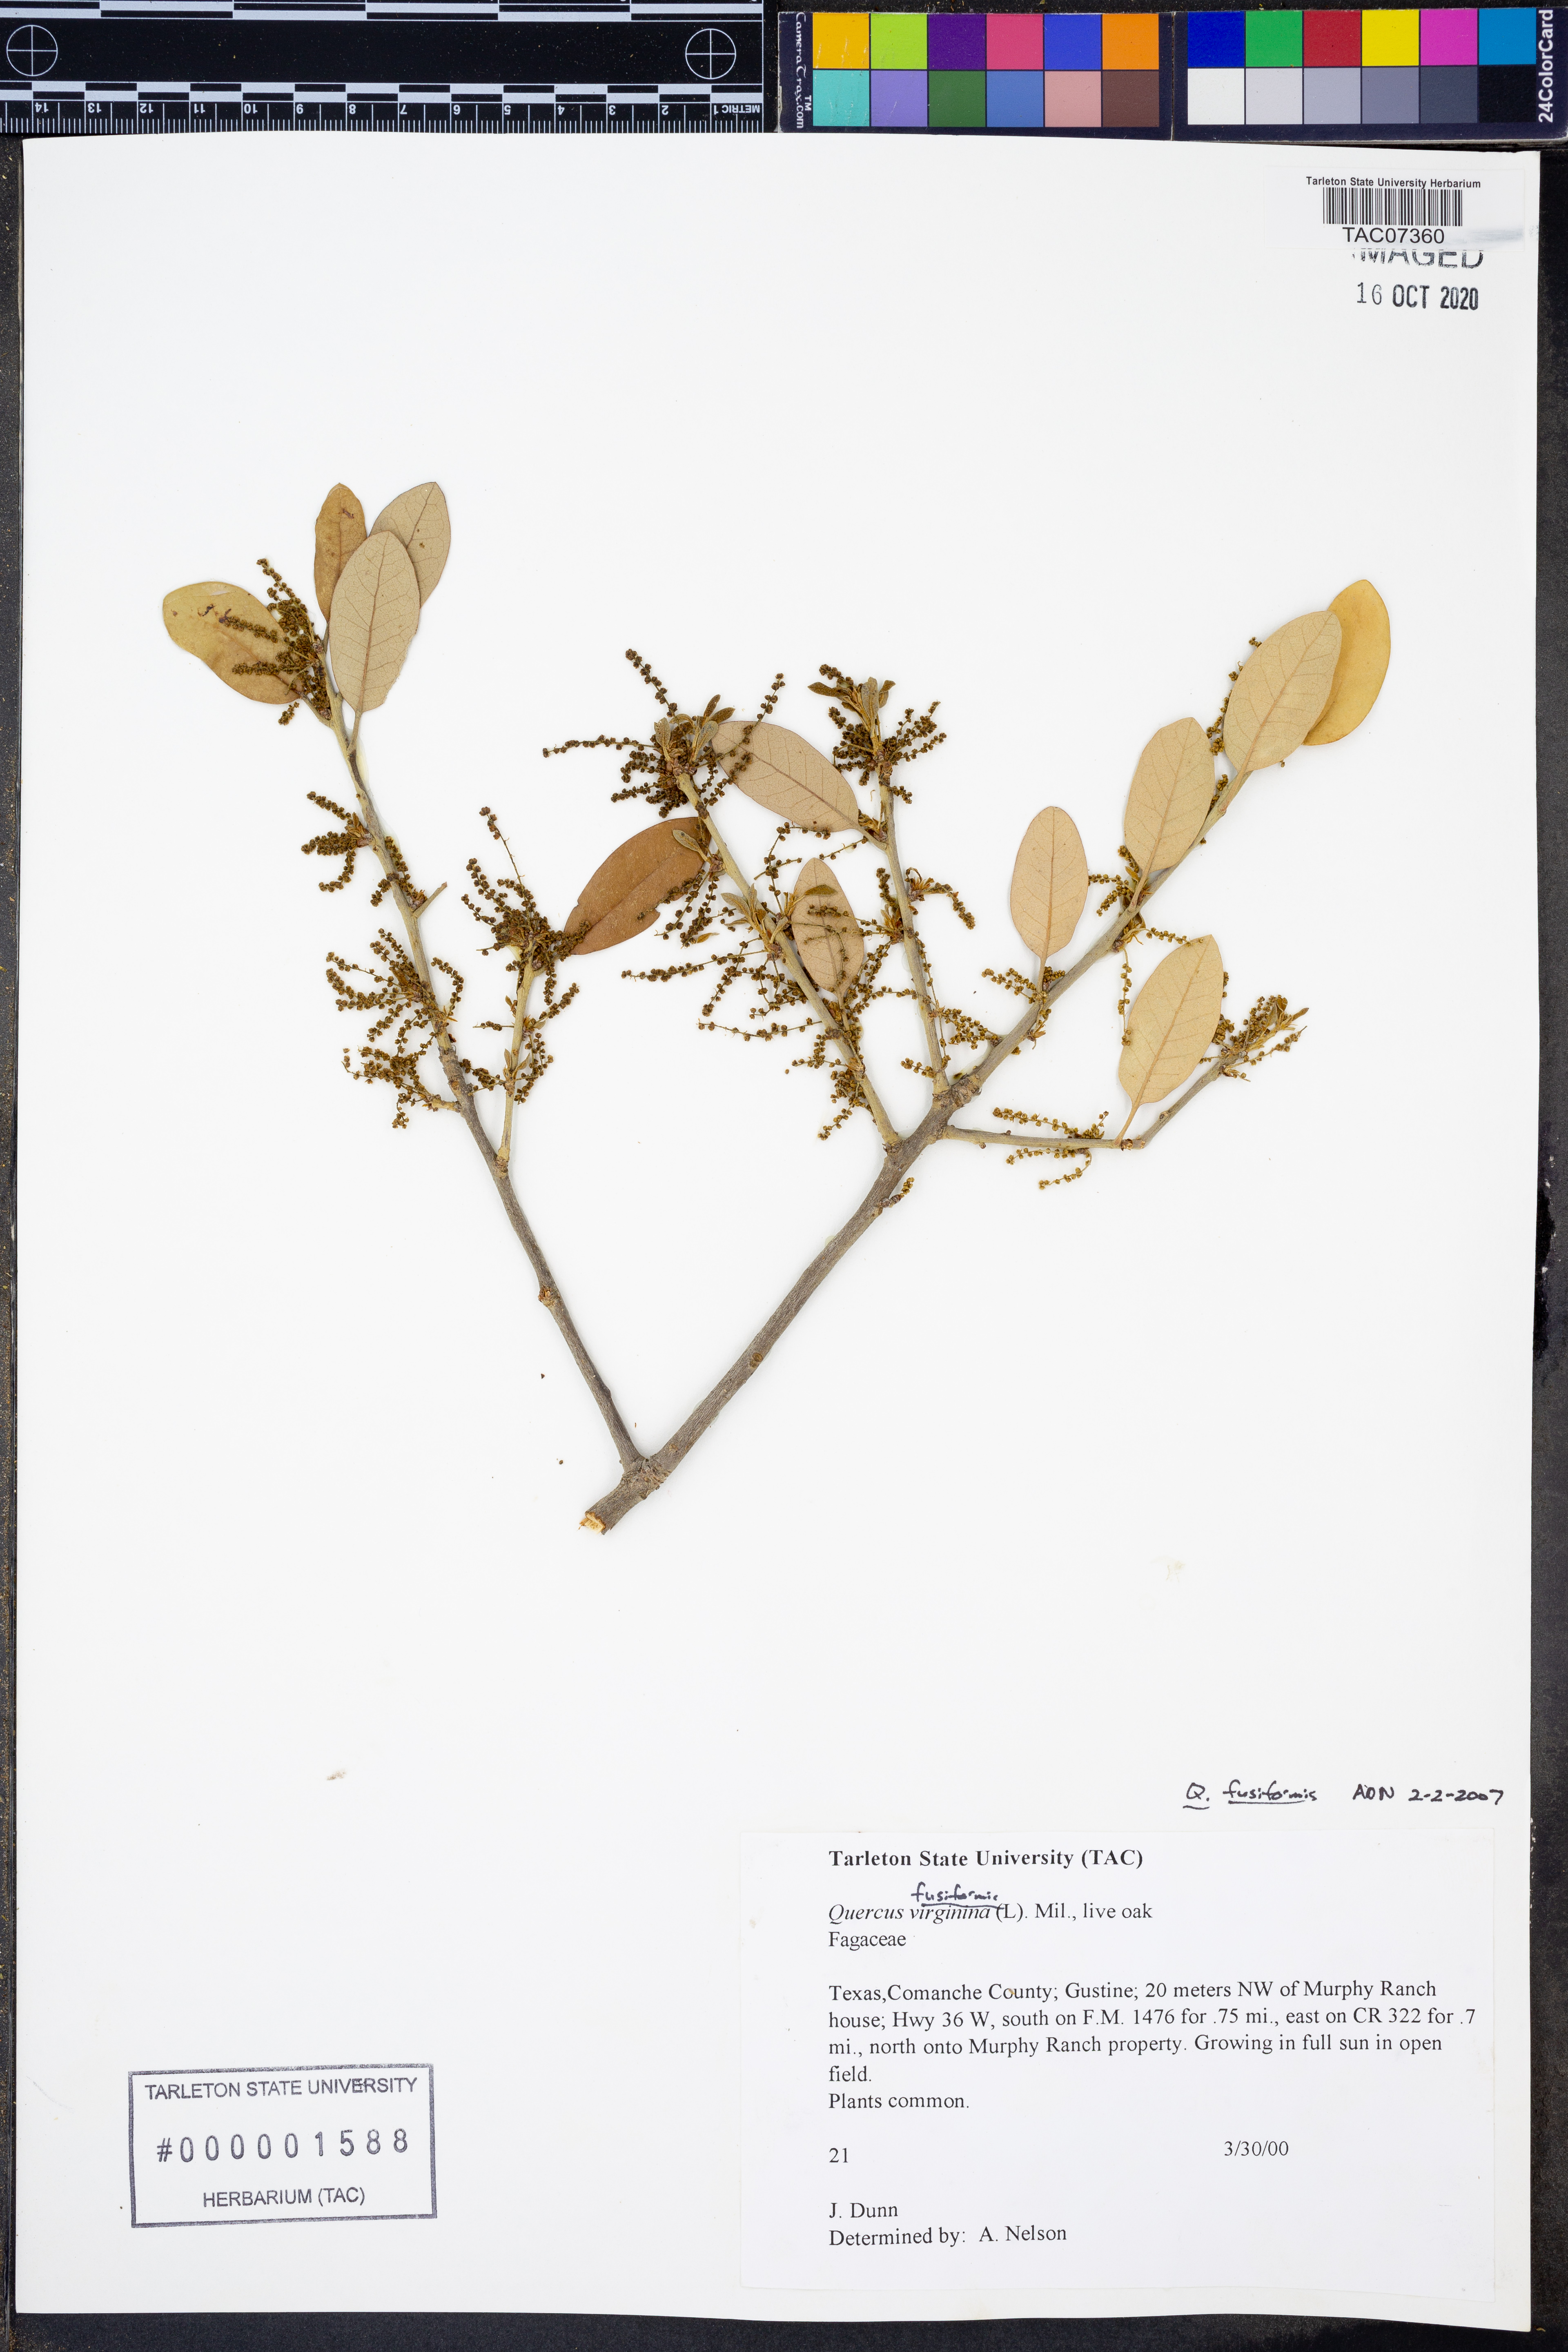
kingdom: Plantae
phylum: Tracheophyta
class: Magnoliopsida
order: Fagales
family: Fagaceae
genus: Quercus
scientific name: Quercus fusiformis
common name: Texas live oak
